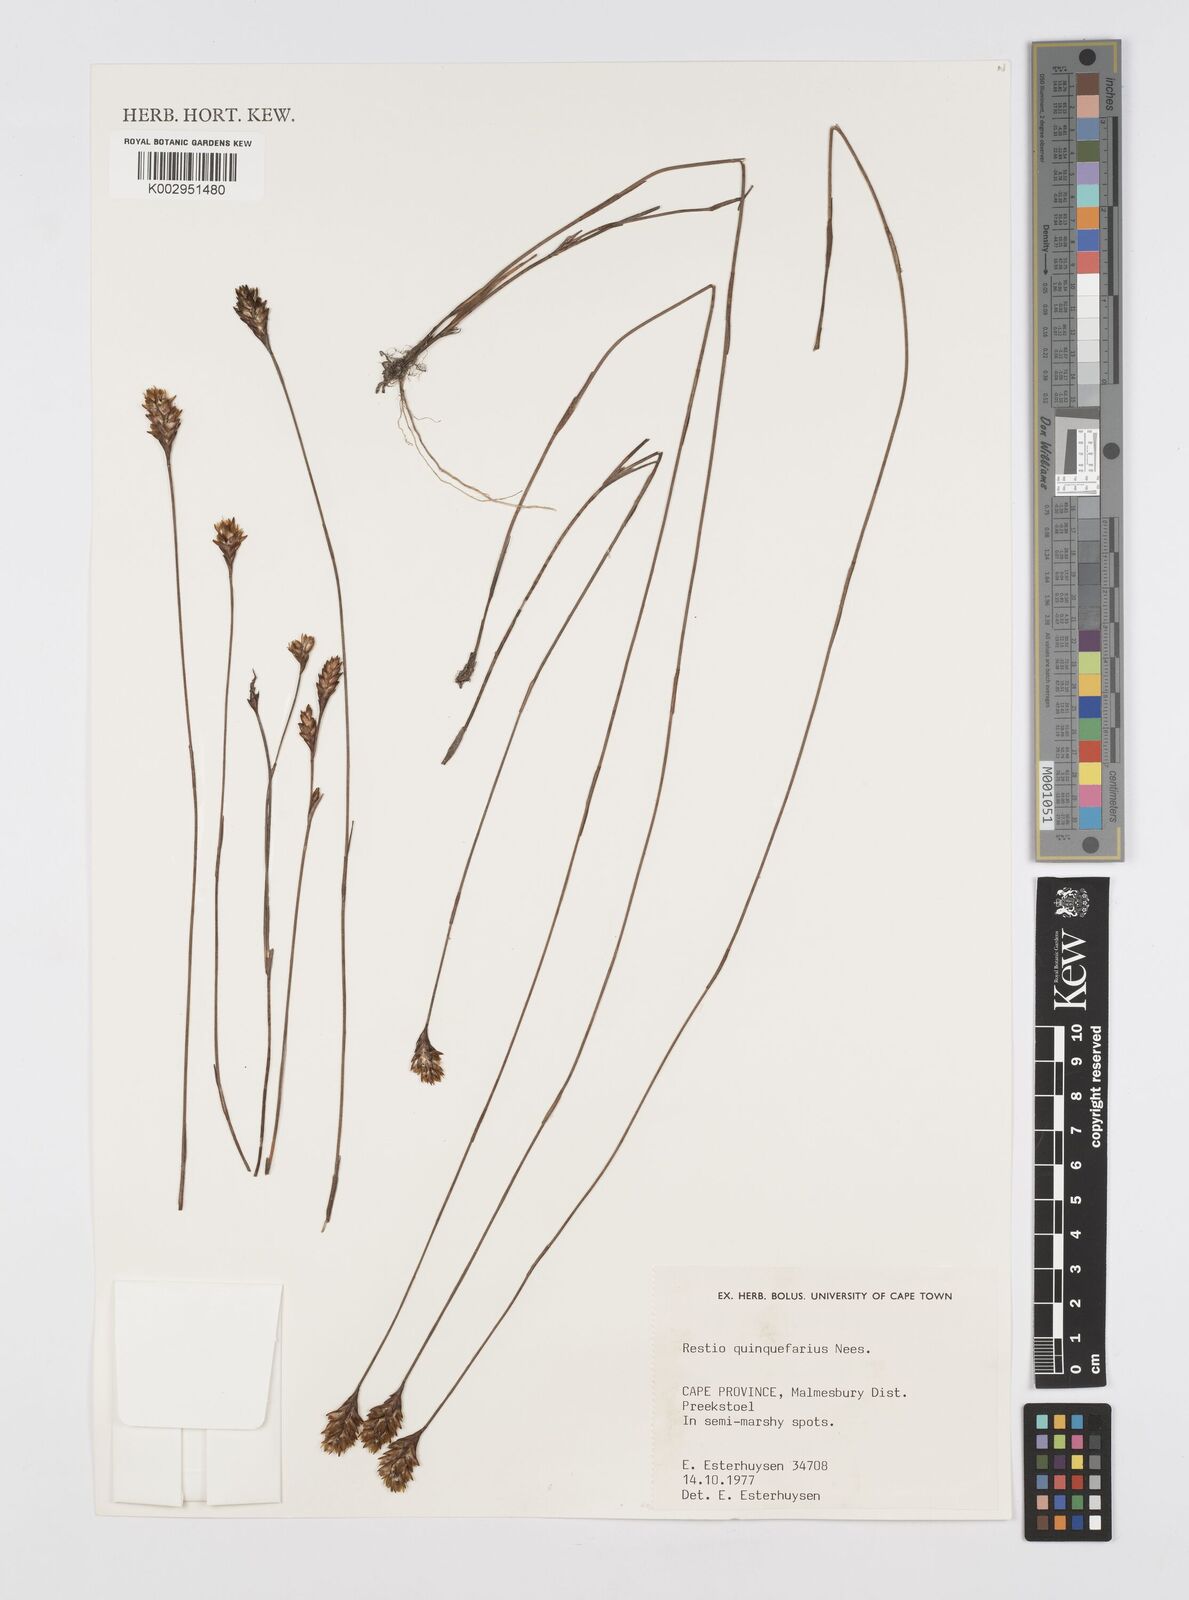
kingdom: Plantae
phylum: Tracheophyta
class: Liliopsida
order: Poales
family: Restionaceae
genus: Restio
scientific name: Restio quinquefarius
